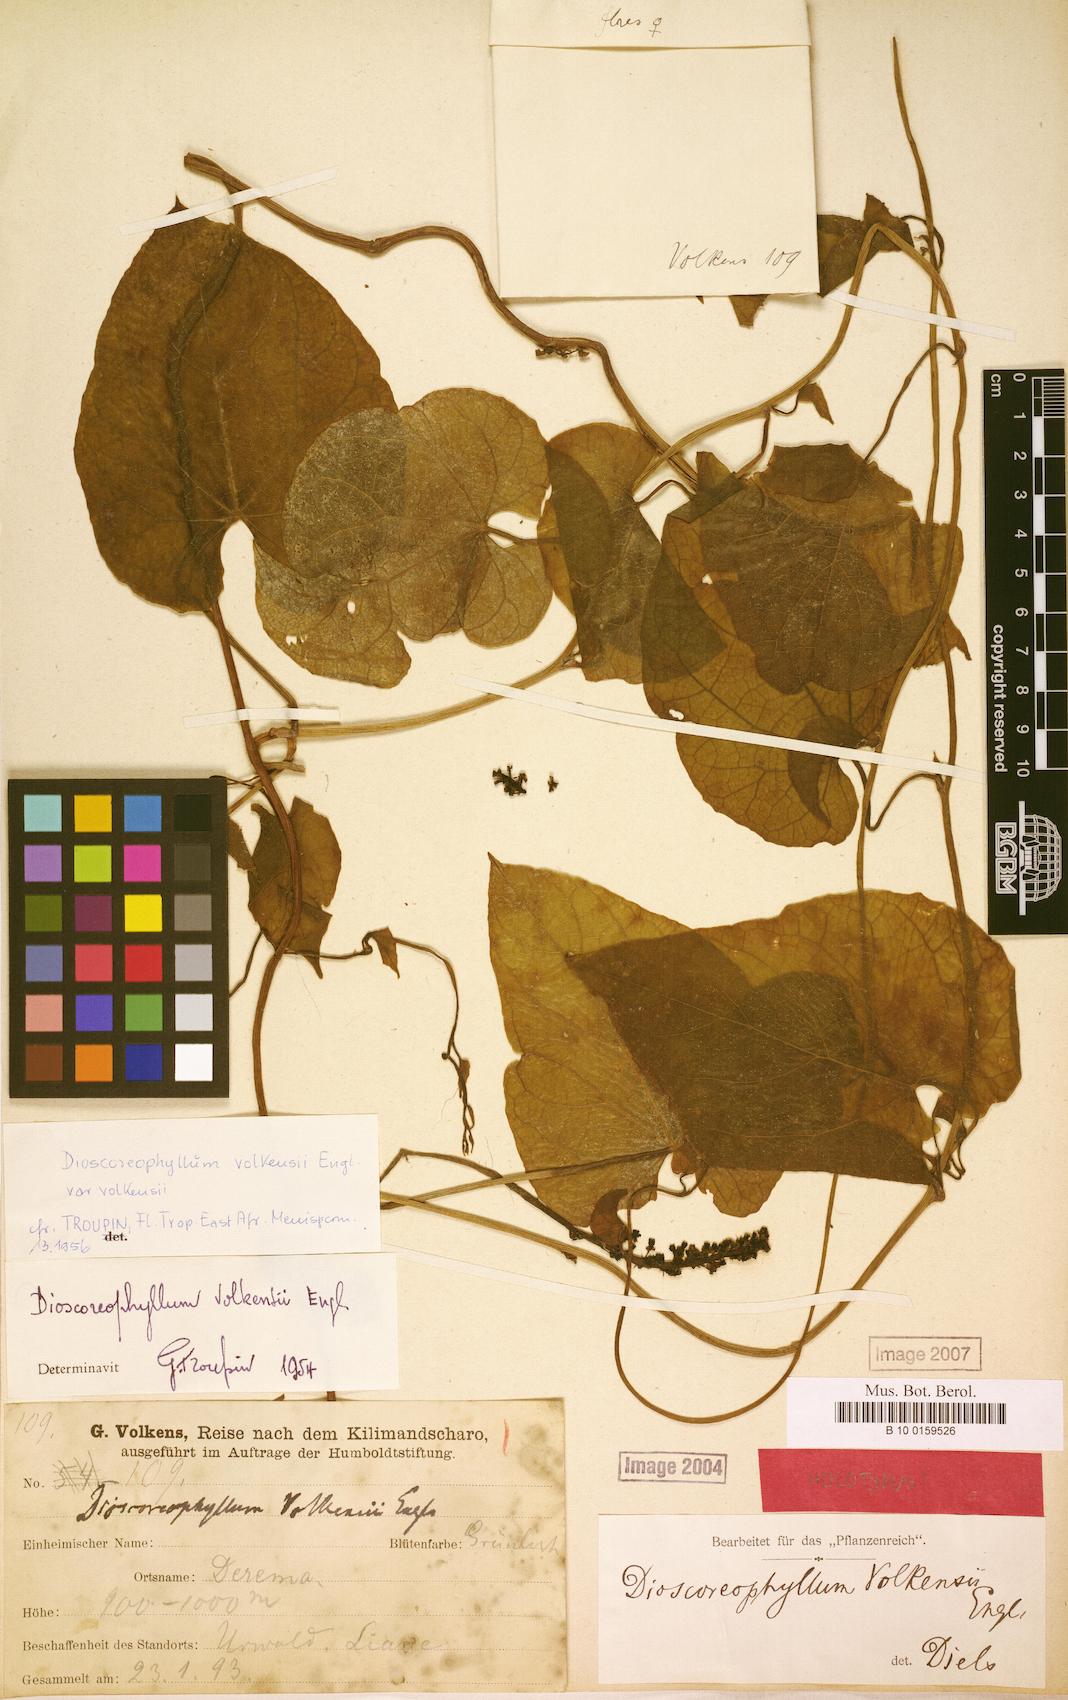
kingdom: Plantae
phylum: Tracheophyta
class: Magnoliopsida
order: Ranunculales
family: Menispermaceae
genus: Dioscoreophyllum
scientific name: Dioscoreophyllum volkensii
